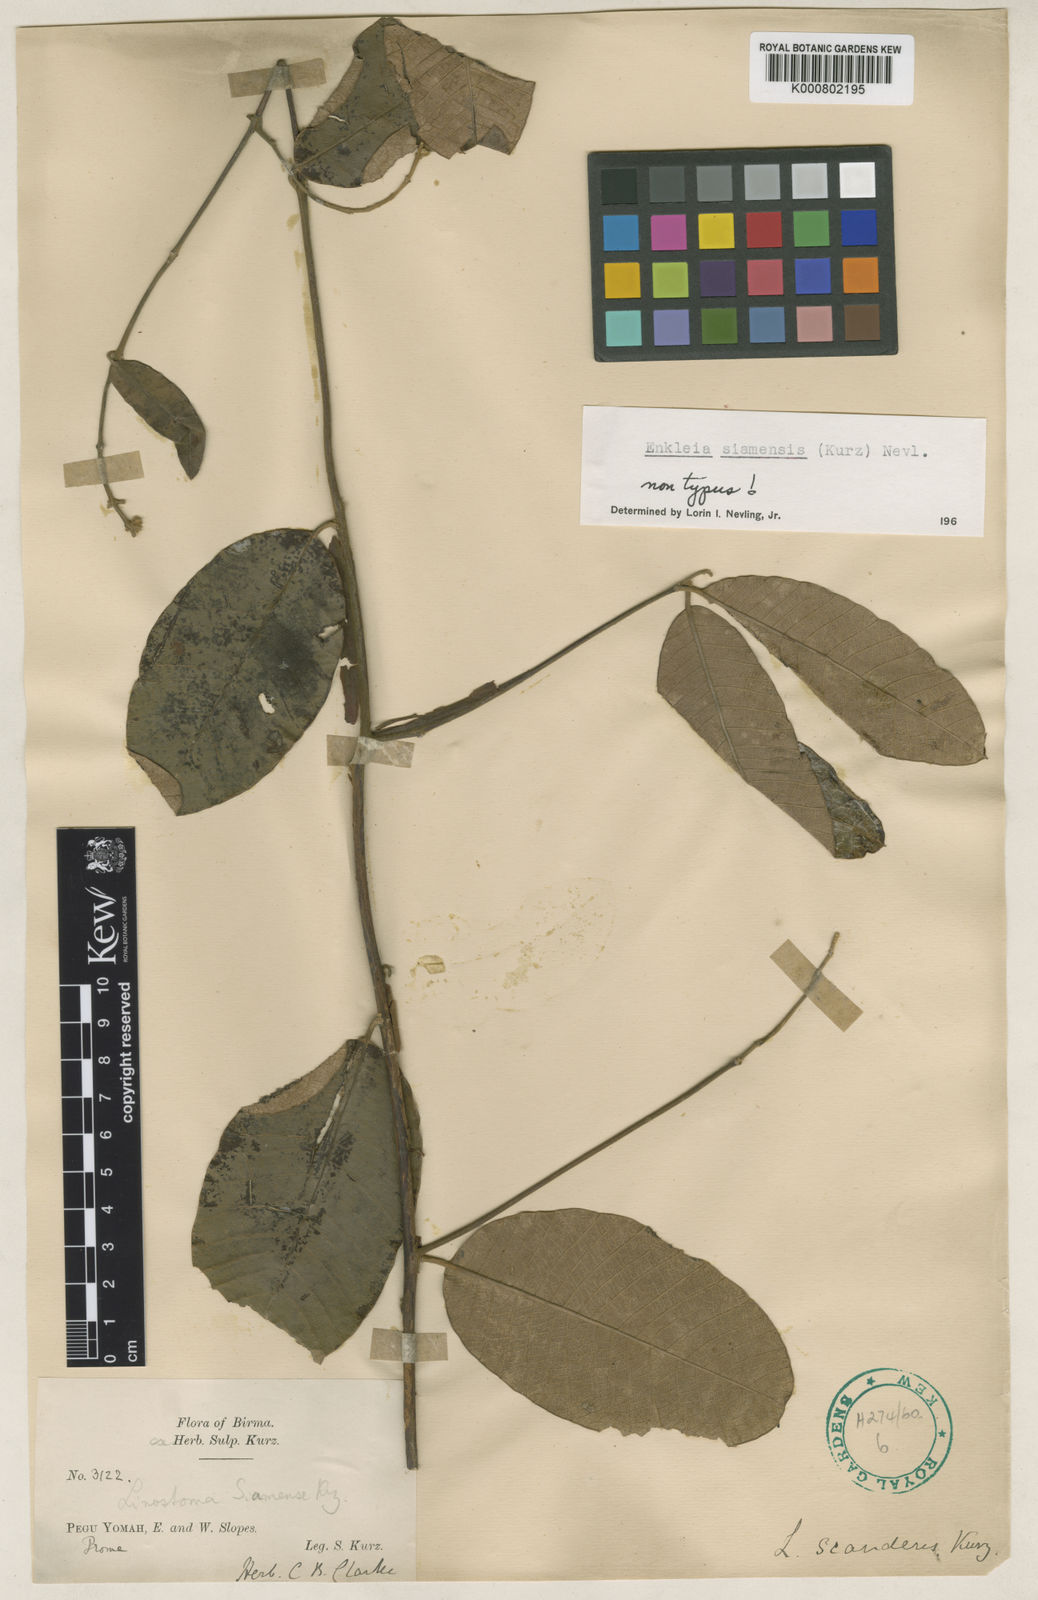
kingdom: Plantae
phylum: Tracheophyta
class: Magnoliopsida
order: Malvales
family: Thymelaeaceae
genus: Enkleia
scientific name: Enkleia malaccensis
